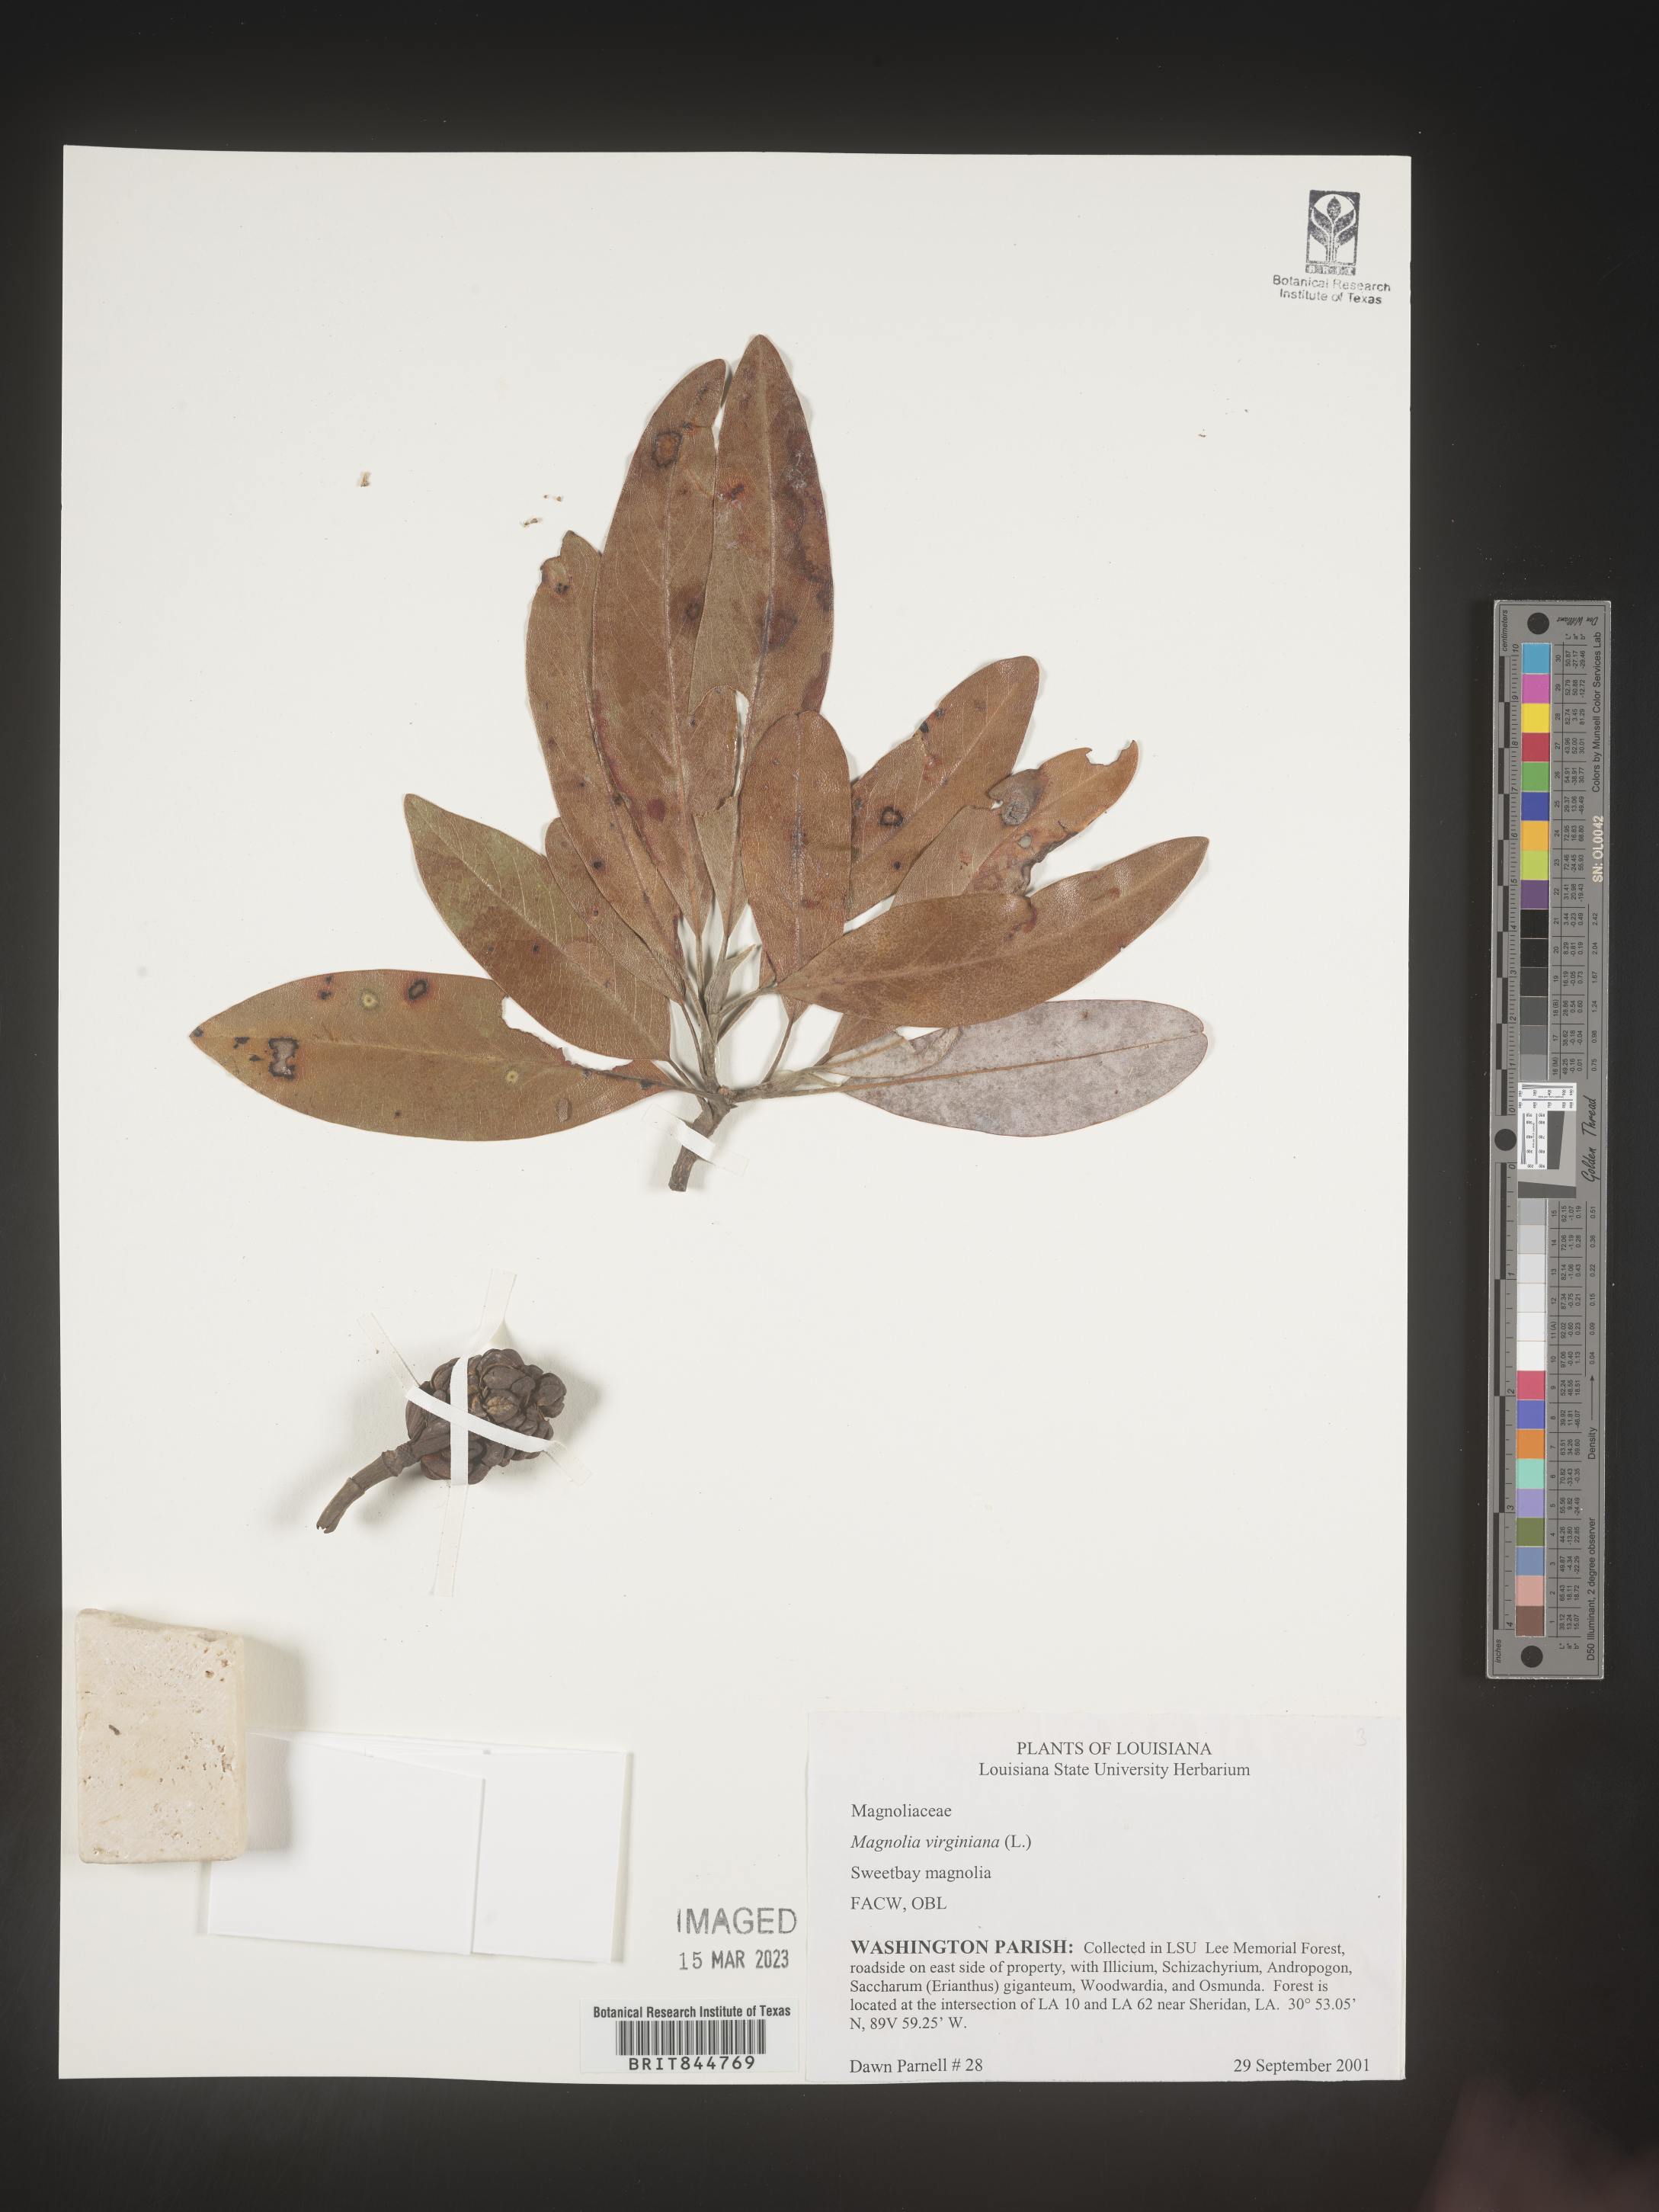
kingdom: Plantae
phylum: Tracheophyta
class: Magnoliopsida
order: Magnoliales
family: Magnoliaceae
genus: Magnolia
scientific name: Magnolia virginiana
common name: Swamp bay
